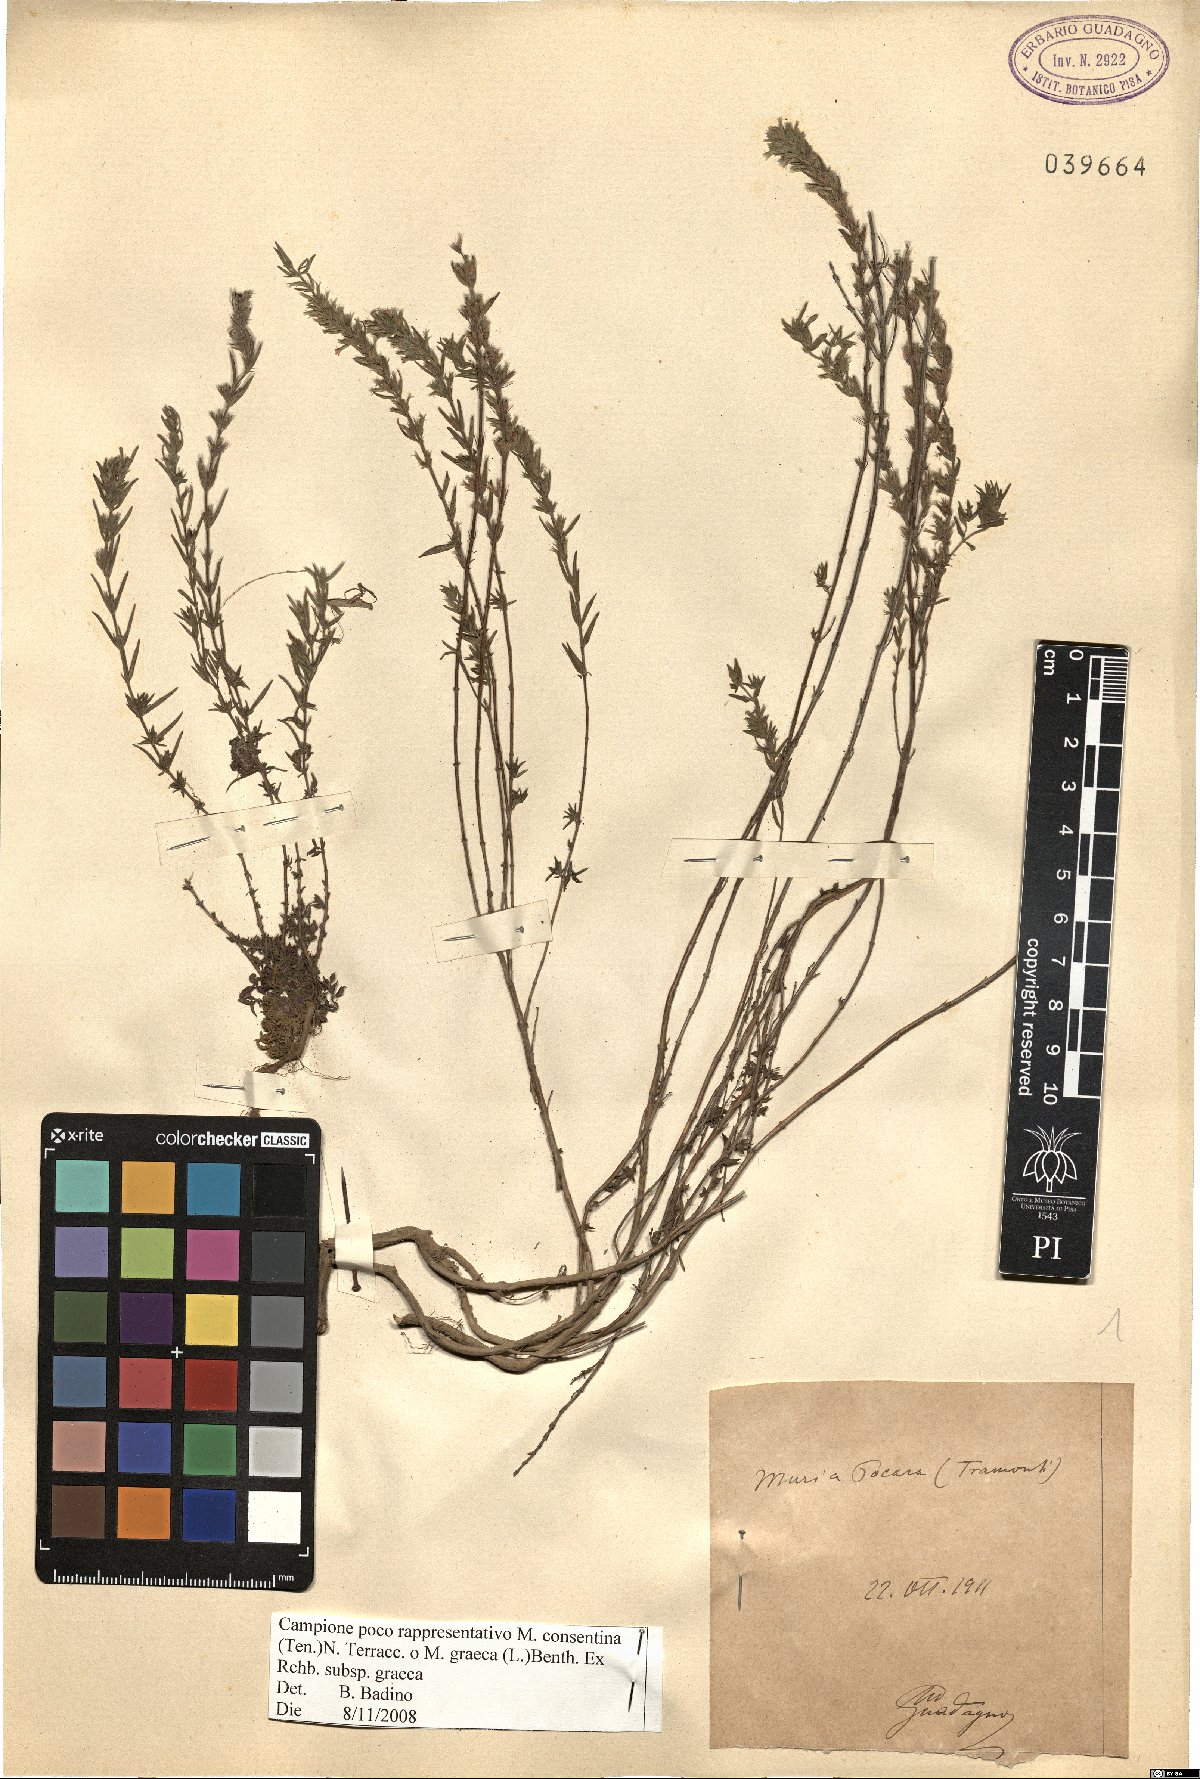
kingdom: Plantae
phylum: Tracheophyta
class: Magnoliopsida
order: Lamiales
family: Lamiaceae
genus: Micromeria
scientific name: Micromeria graeca
